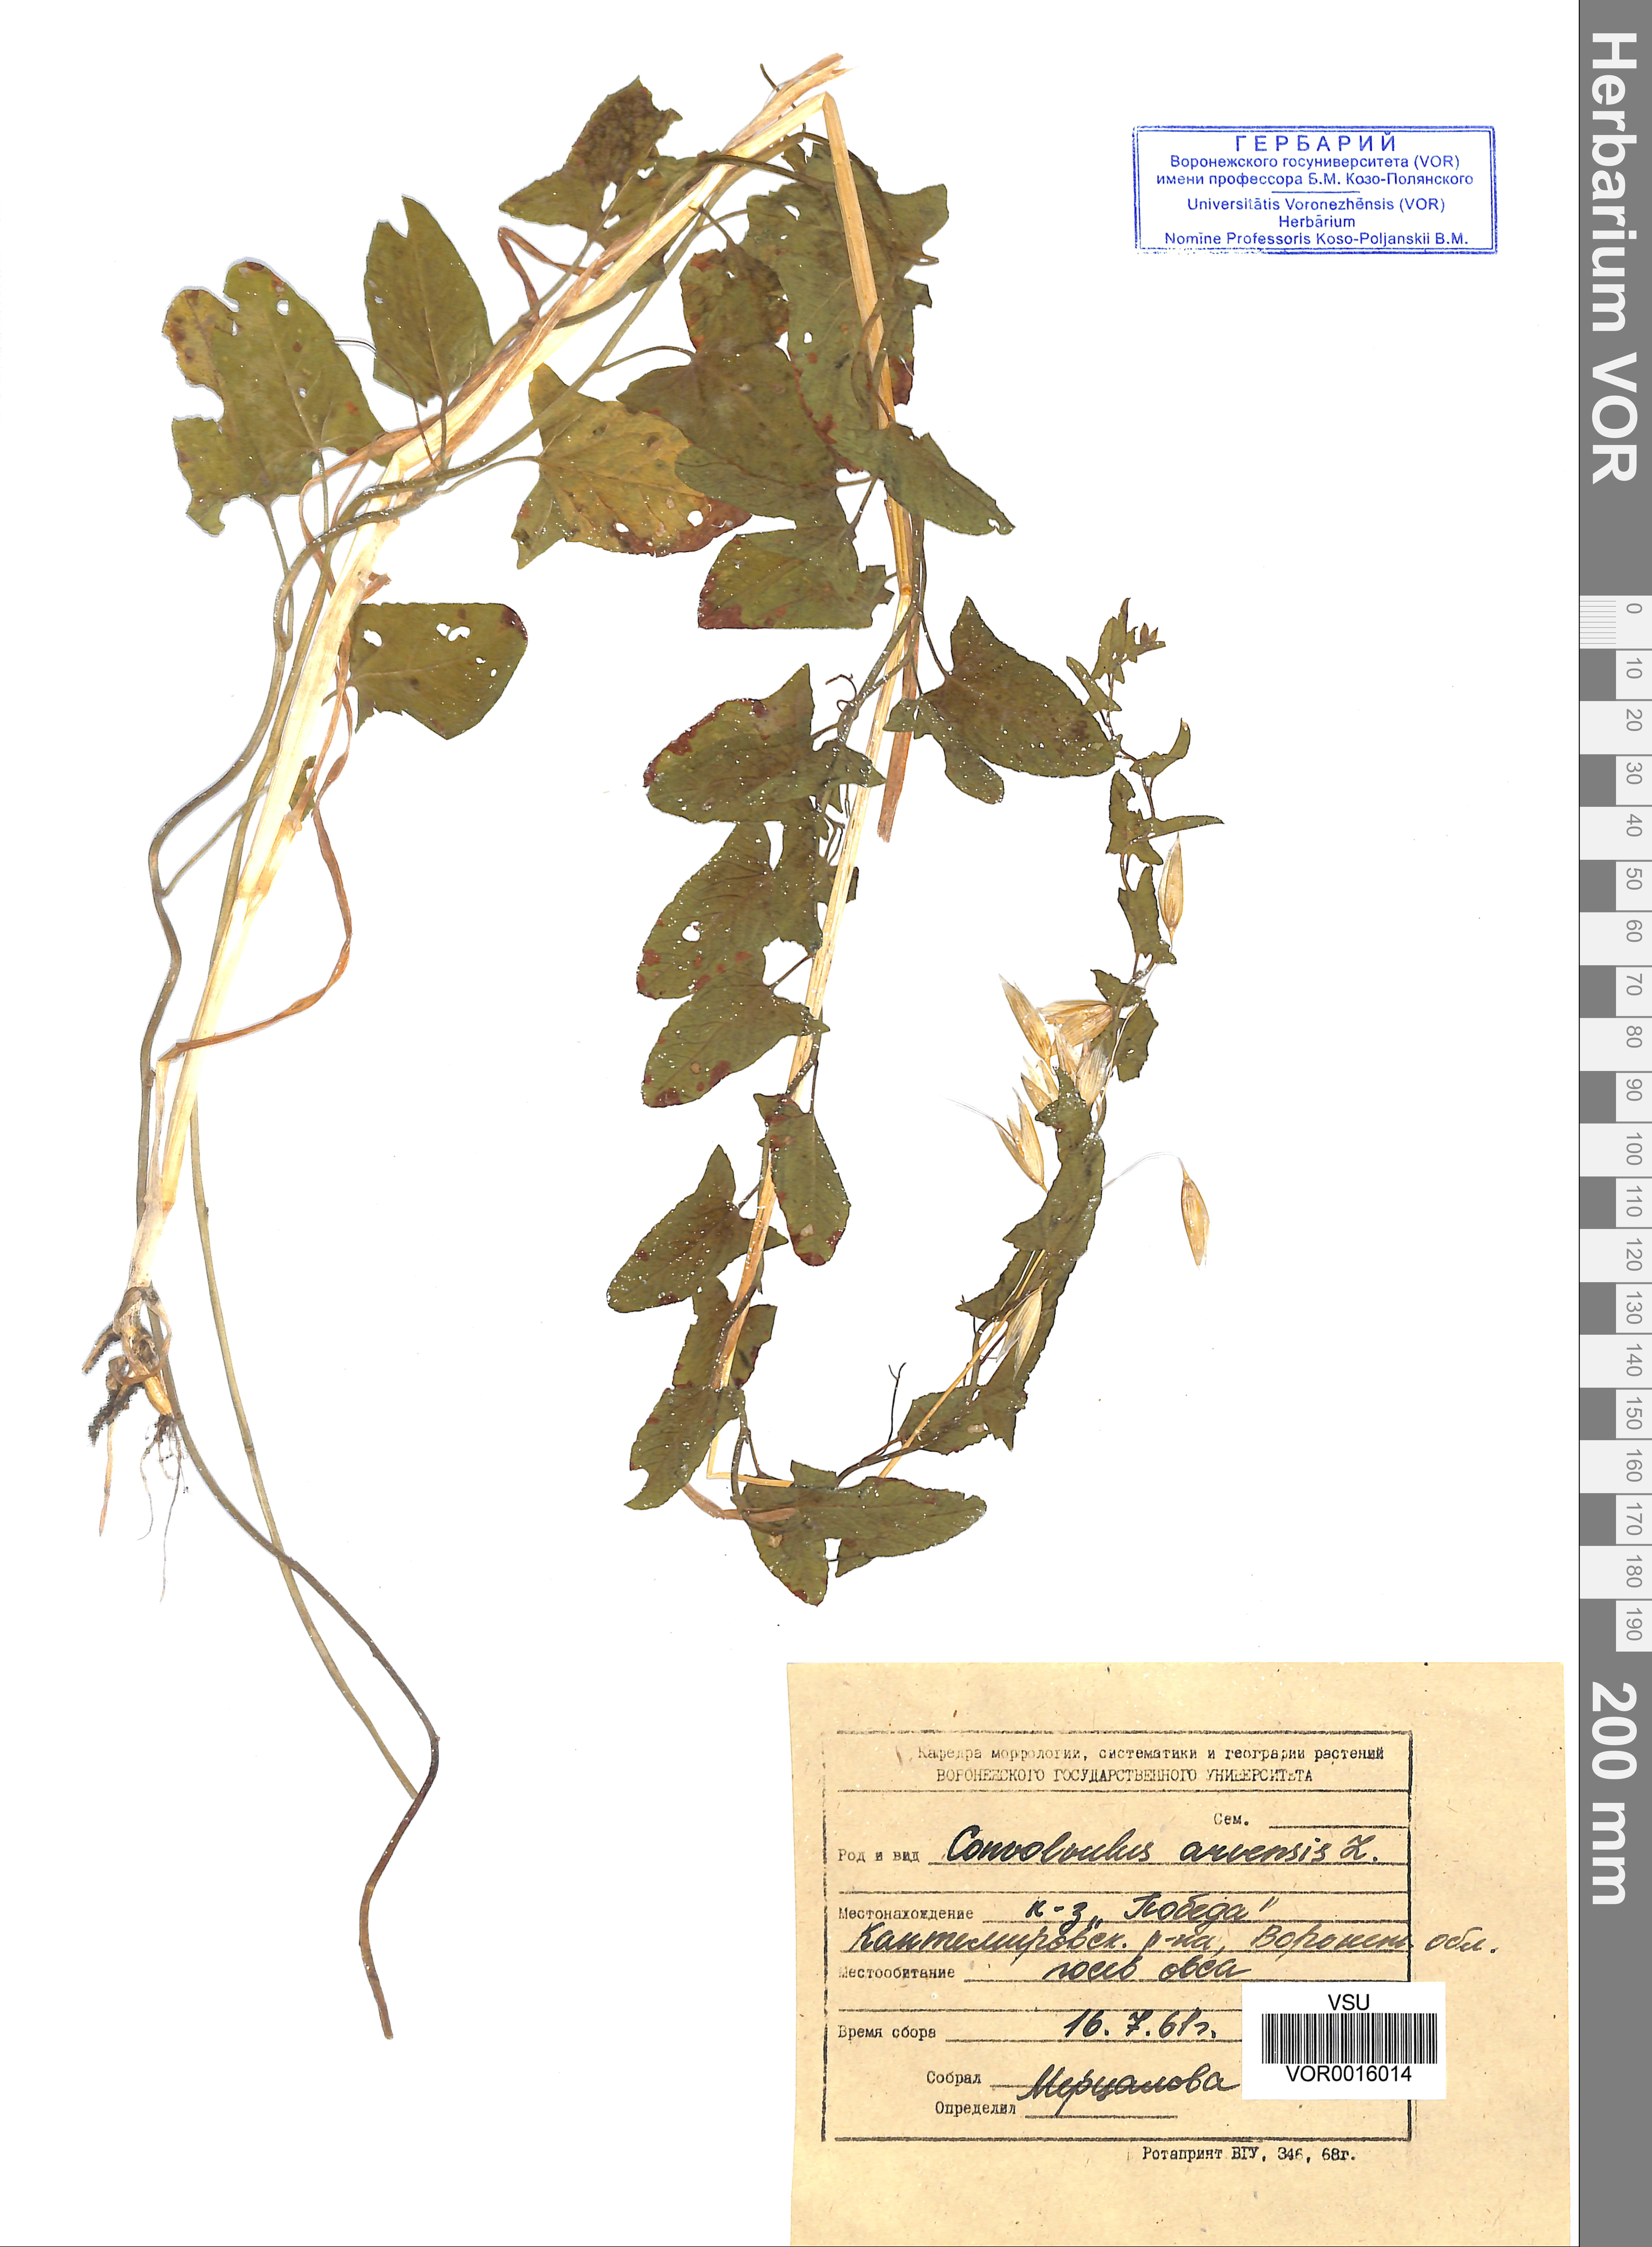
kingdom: Plantae
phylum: Tracheophyta
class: Magnoliopsida
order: Solanales
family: Convolvulaceae
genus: Convolvulus
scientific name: Convolvulus arvensis
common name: Field bindweed
